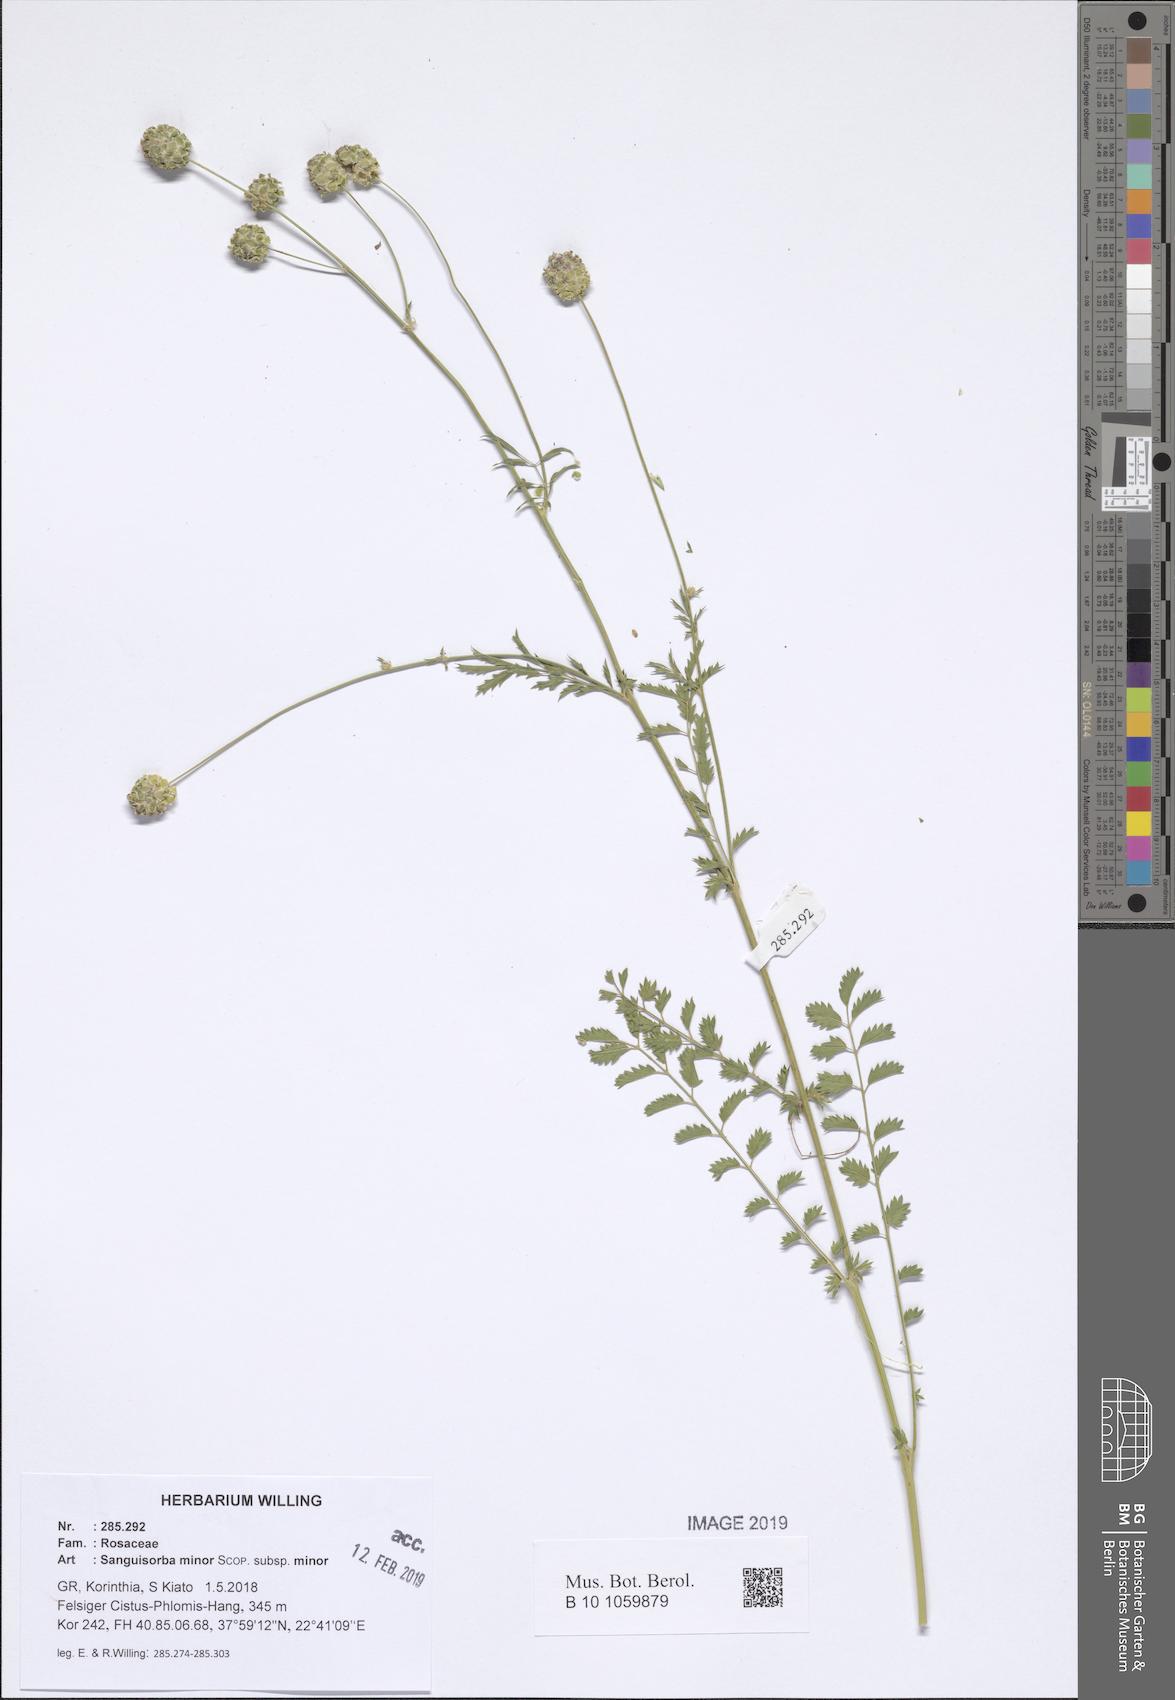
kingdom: Plantae
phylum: Tracheophyta
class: Magnoliopsida
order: Rosales
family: Rosaceae
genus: Poterium
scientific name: Poterium sanguisorba
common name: Salad burnet
